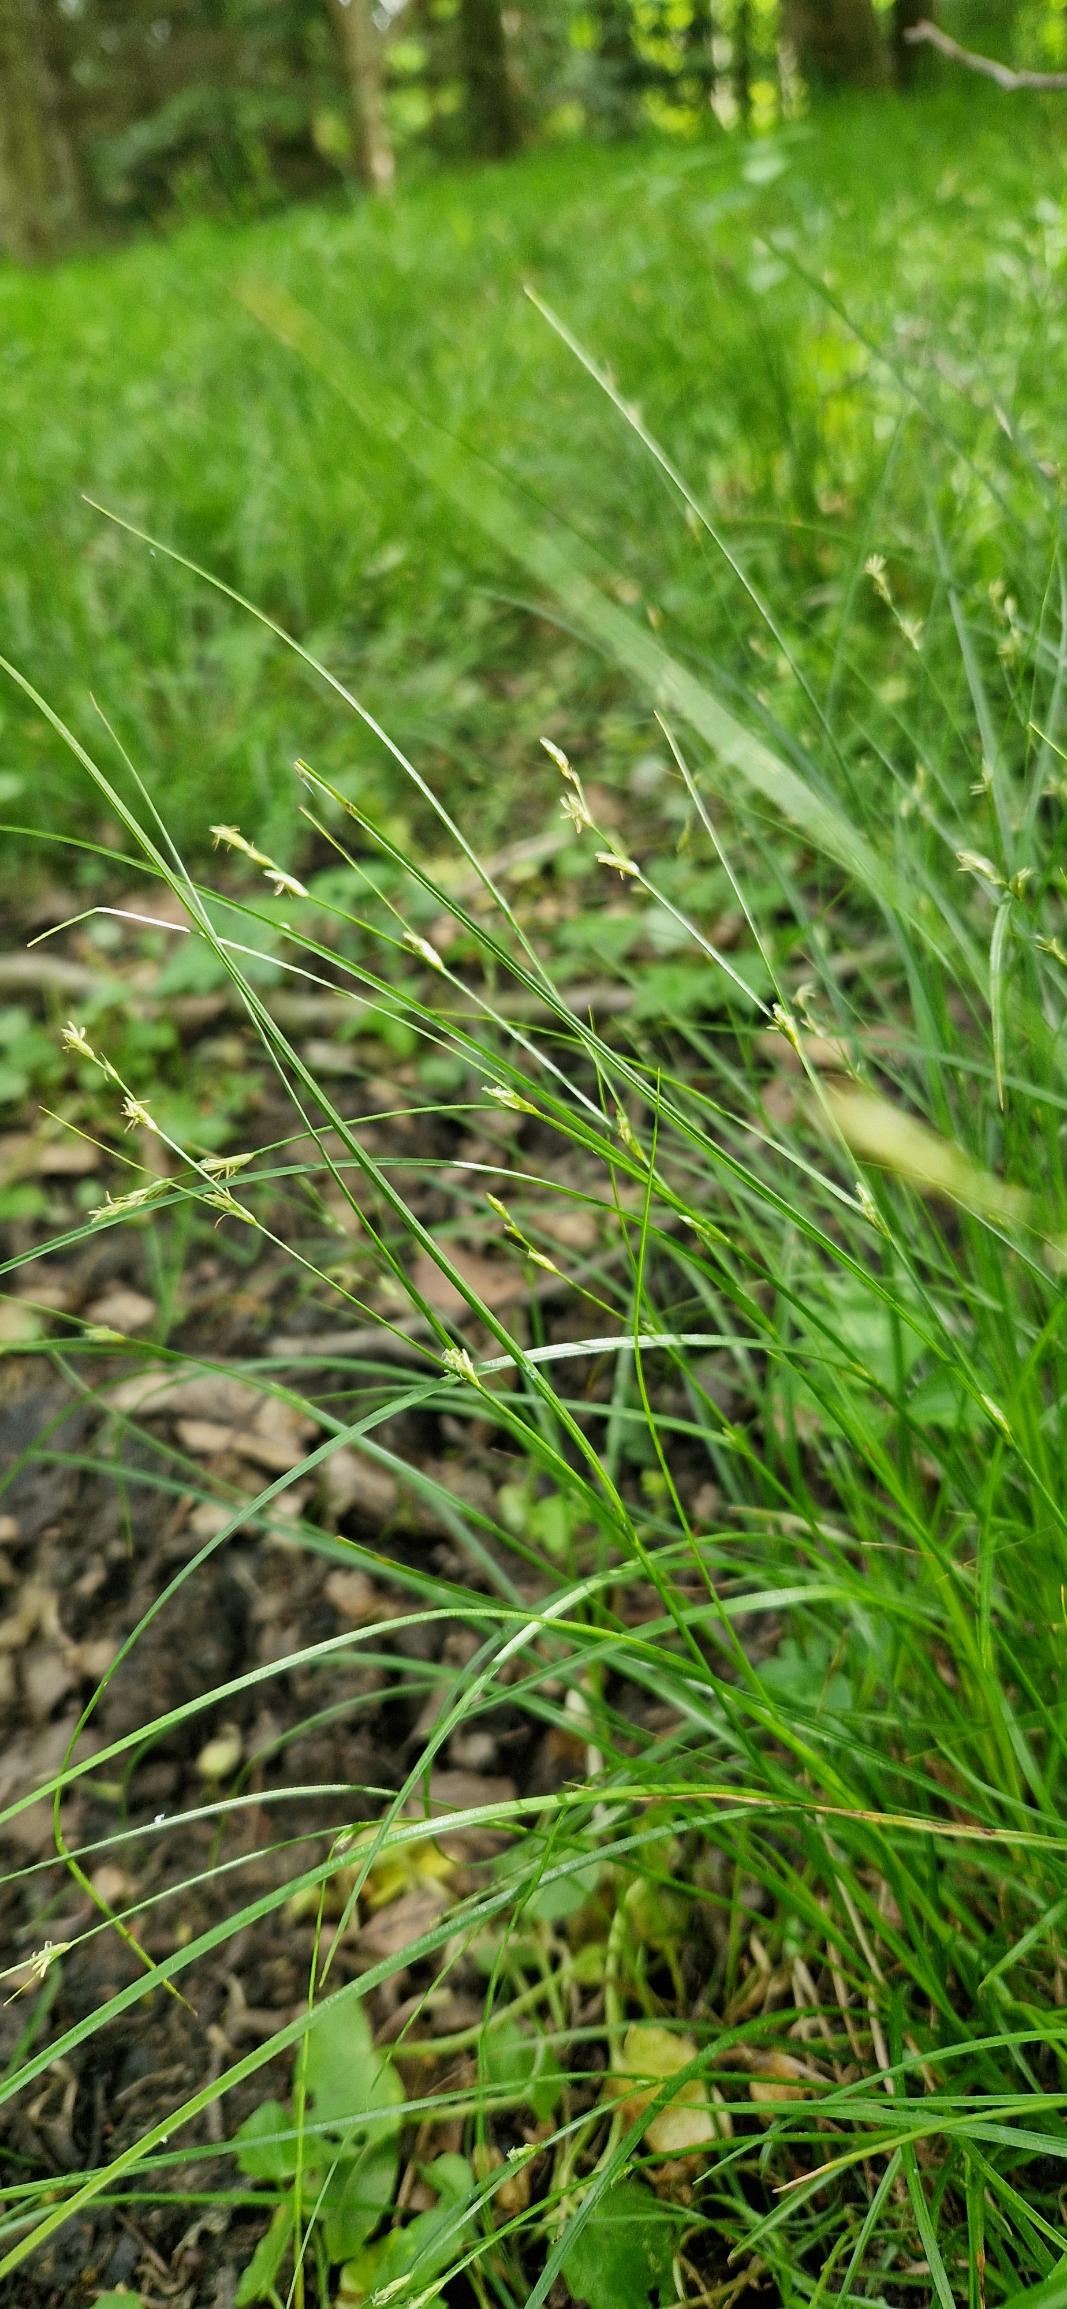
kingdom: Plantae
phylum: Tracheophyta
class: Liliopsida
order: Poales
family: Cyperaceae
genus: Carex
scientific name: Carex remota
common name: Akselblomstret star
